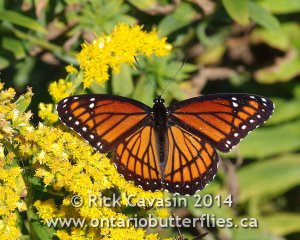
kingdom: Animalia
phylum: Arthropoda
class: Insecta
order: Lepidoptera
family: Nymphalidae
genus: Limenitis
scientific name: Limenitis archippus
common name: Viceroy
